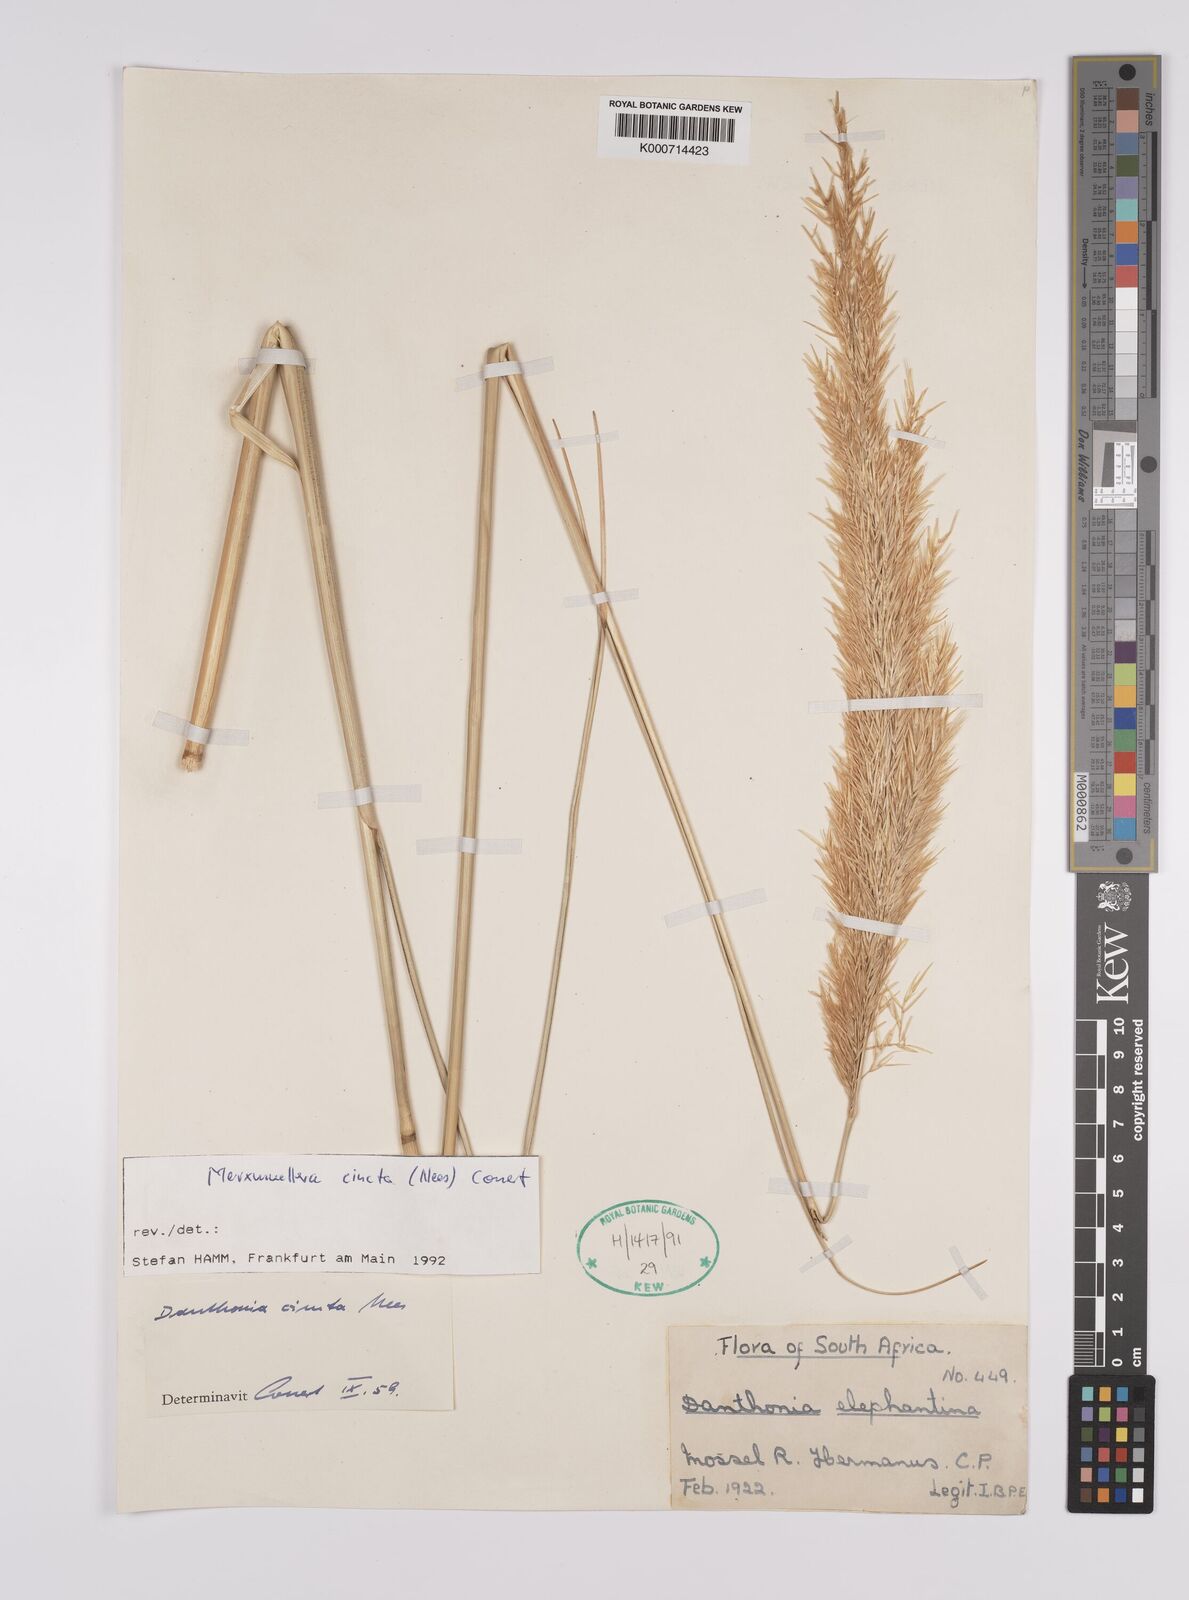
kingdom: Plantae
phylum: Tracheophyta
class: Liliopsida
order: Poales
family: Poaceae
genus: Rytidosperma
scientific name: Rytidosperma
